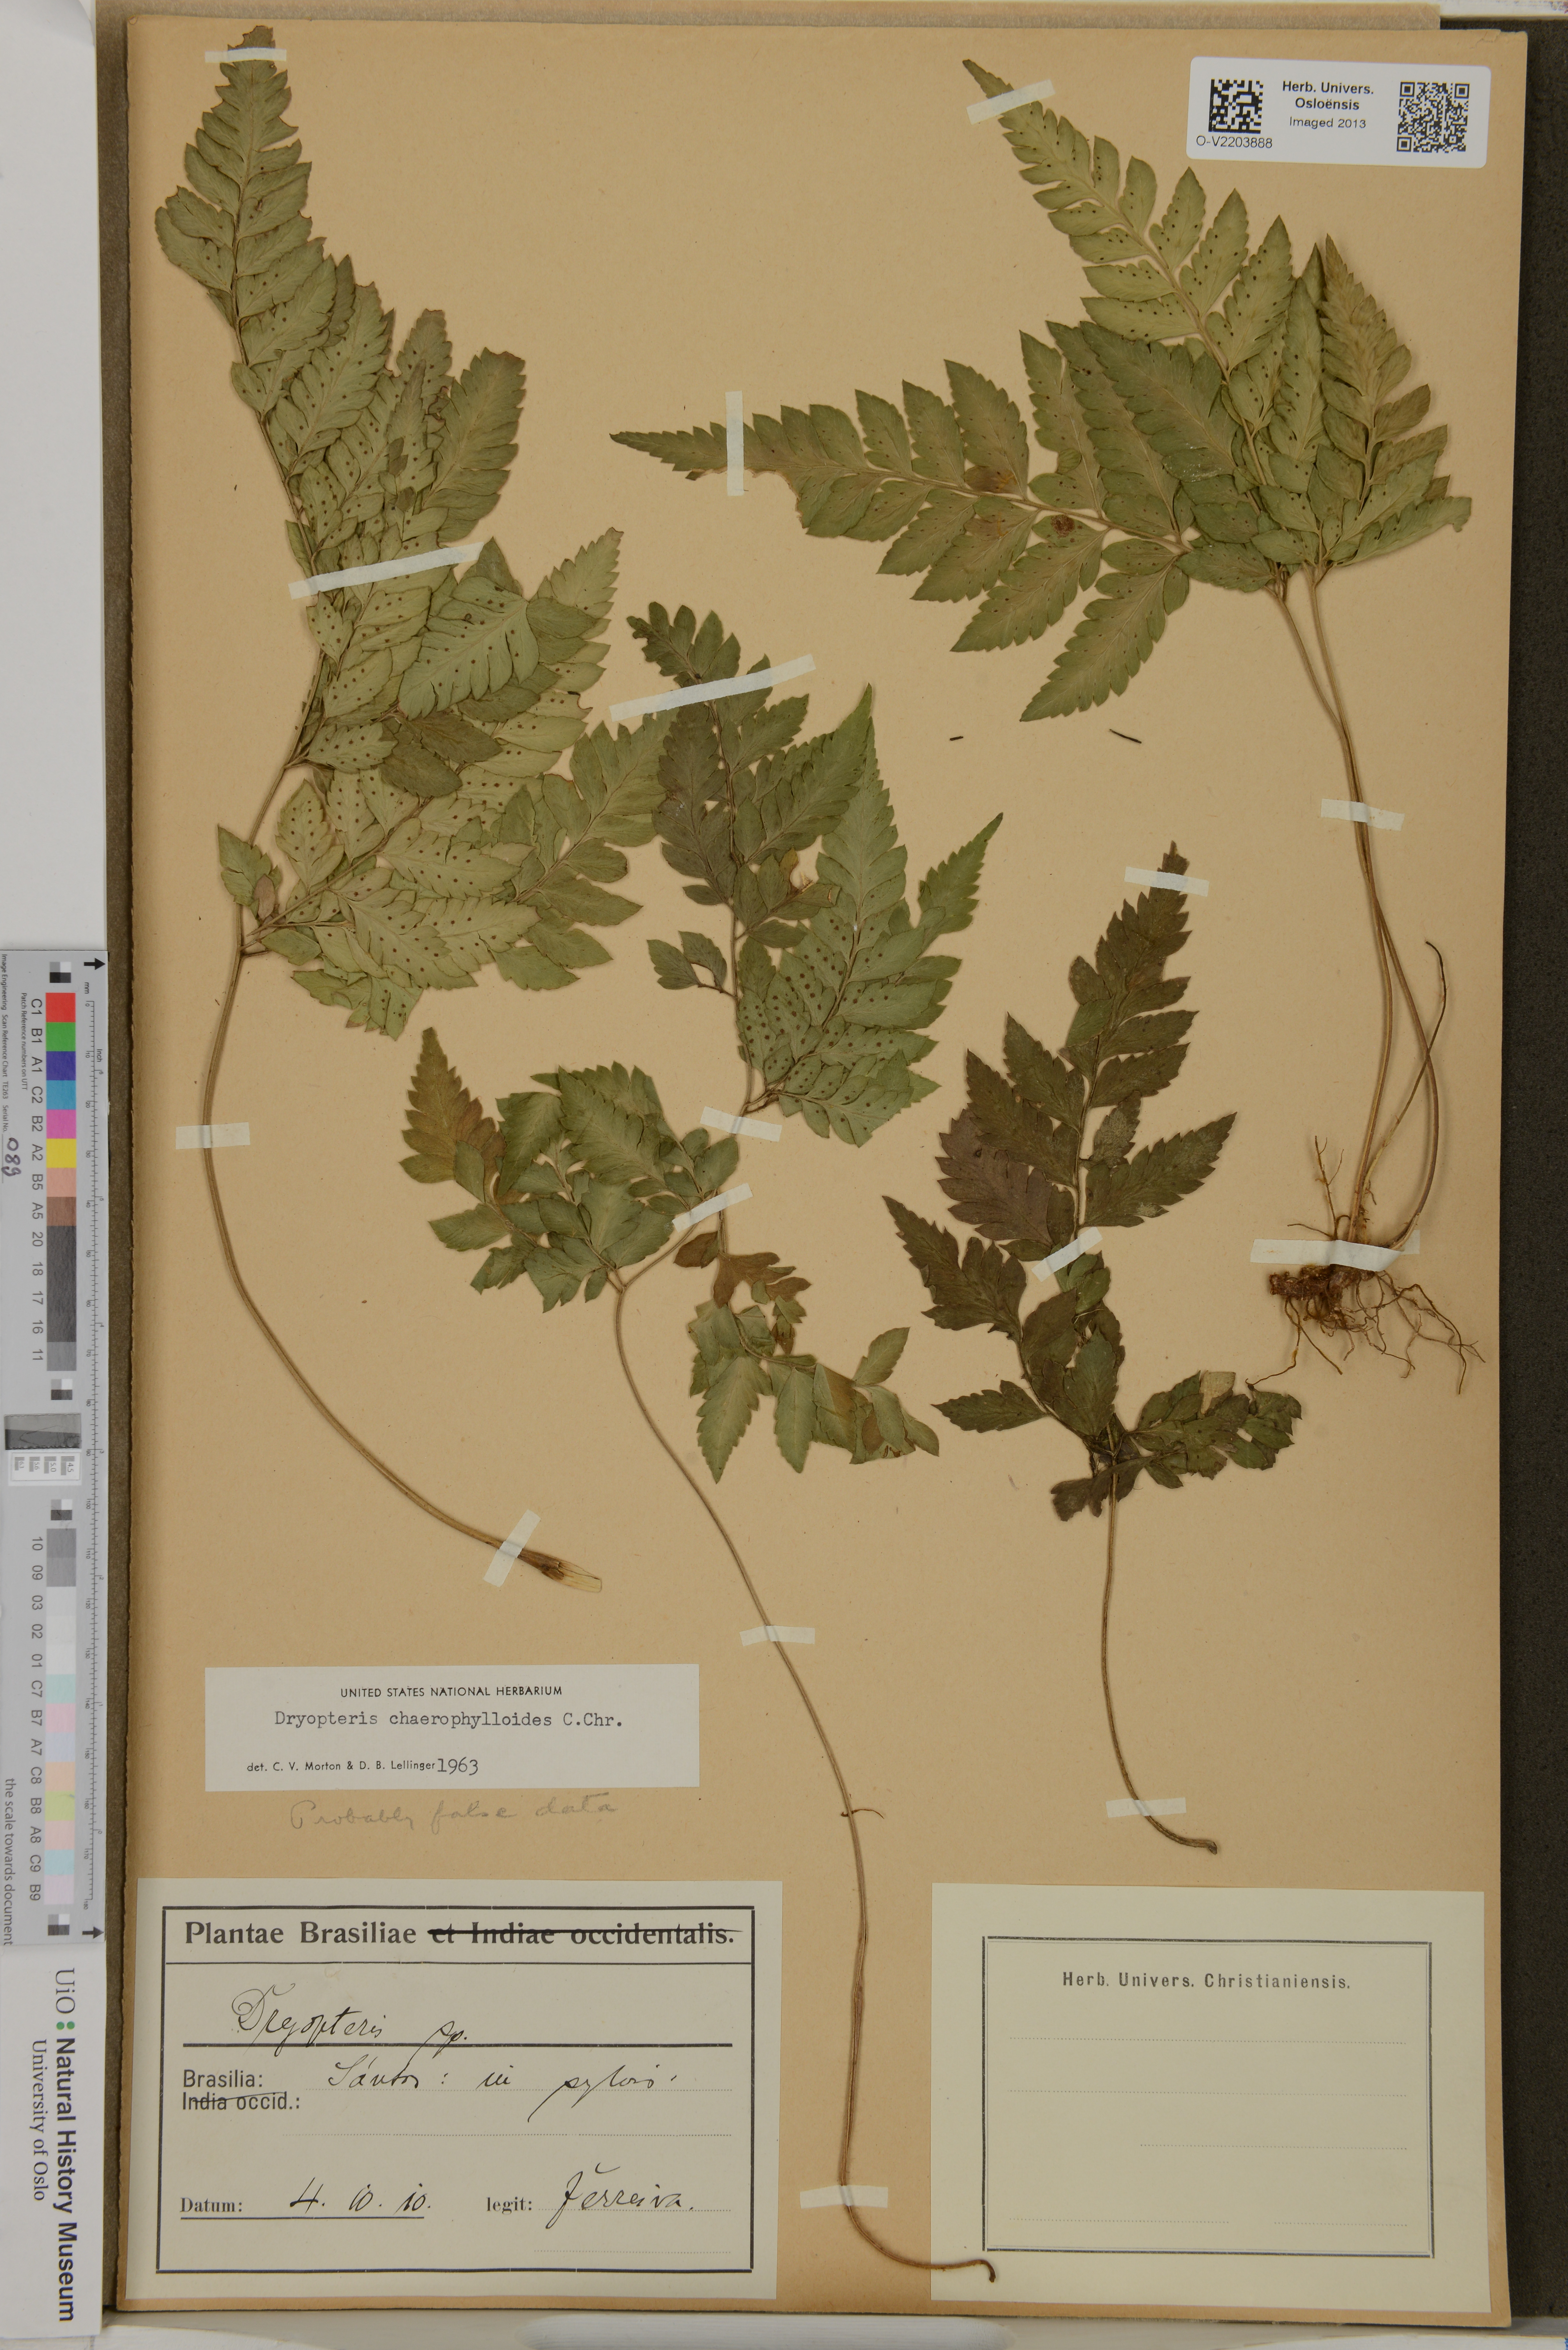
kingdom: Plantae
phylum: Tracheophyta
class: Polypodiopsida
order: Polypodiales
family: Dryopteridaceae
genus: Polystichopsis
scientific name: Polystichopsis chaerophylloides
